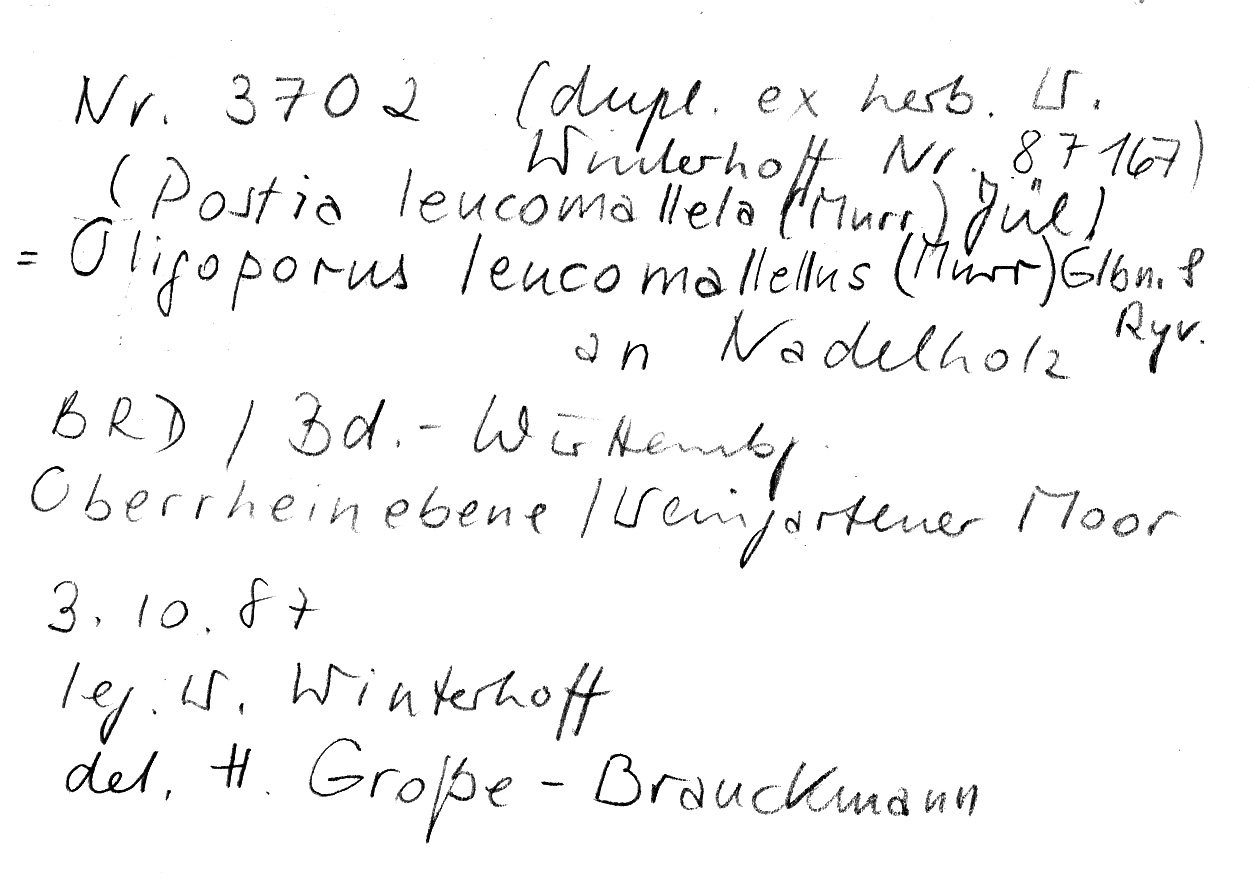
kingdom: Fungi
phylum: Basidiomycota
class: Agaricomycetes
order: Polyporales
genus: Fuscopostia
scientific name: Fuscopostia leucomallella
